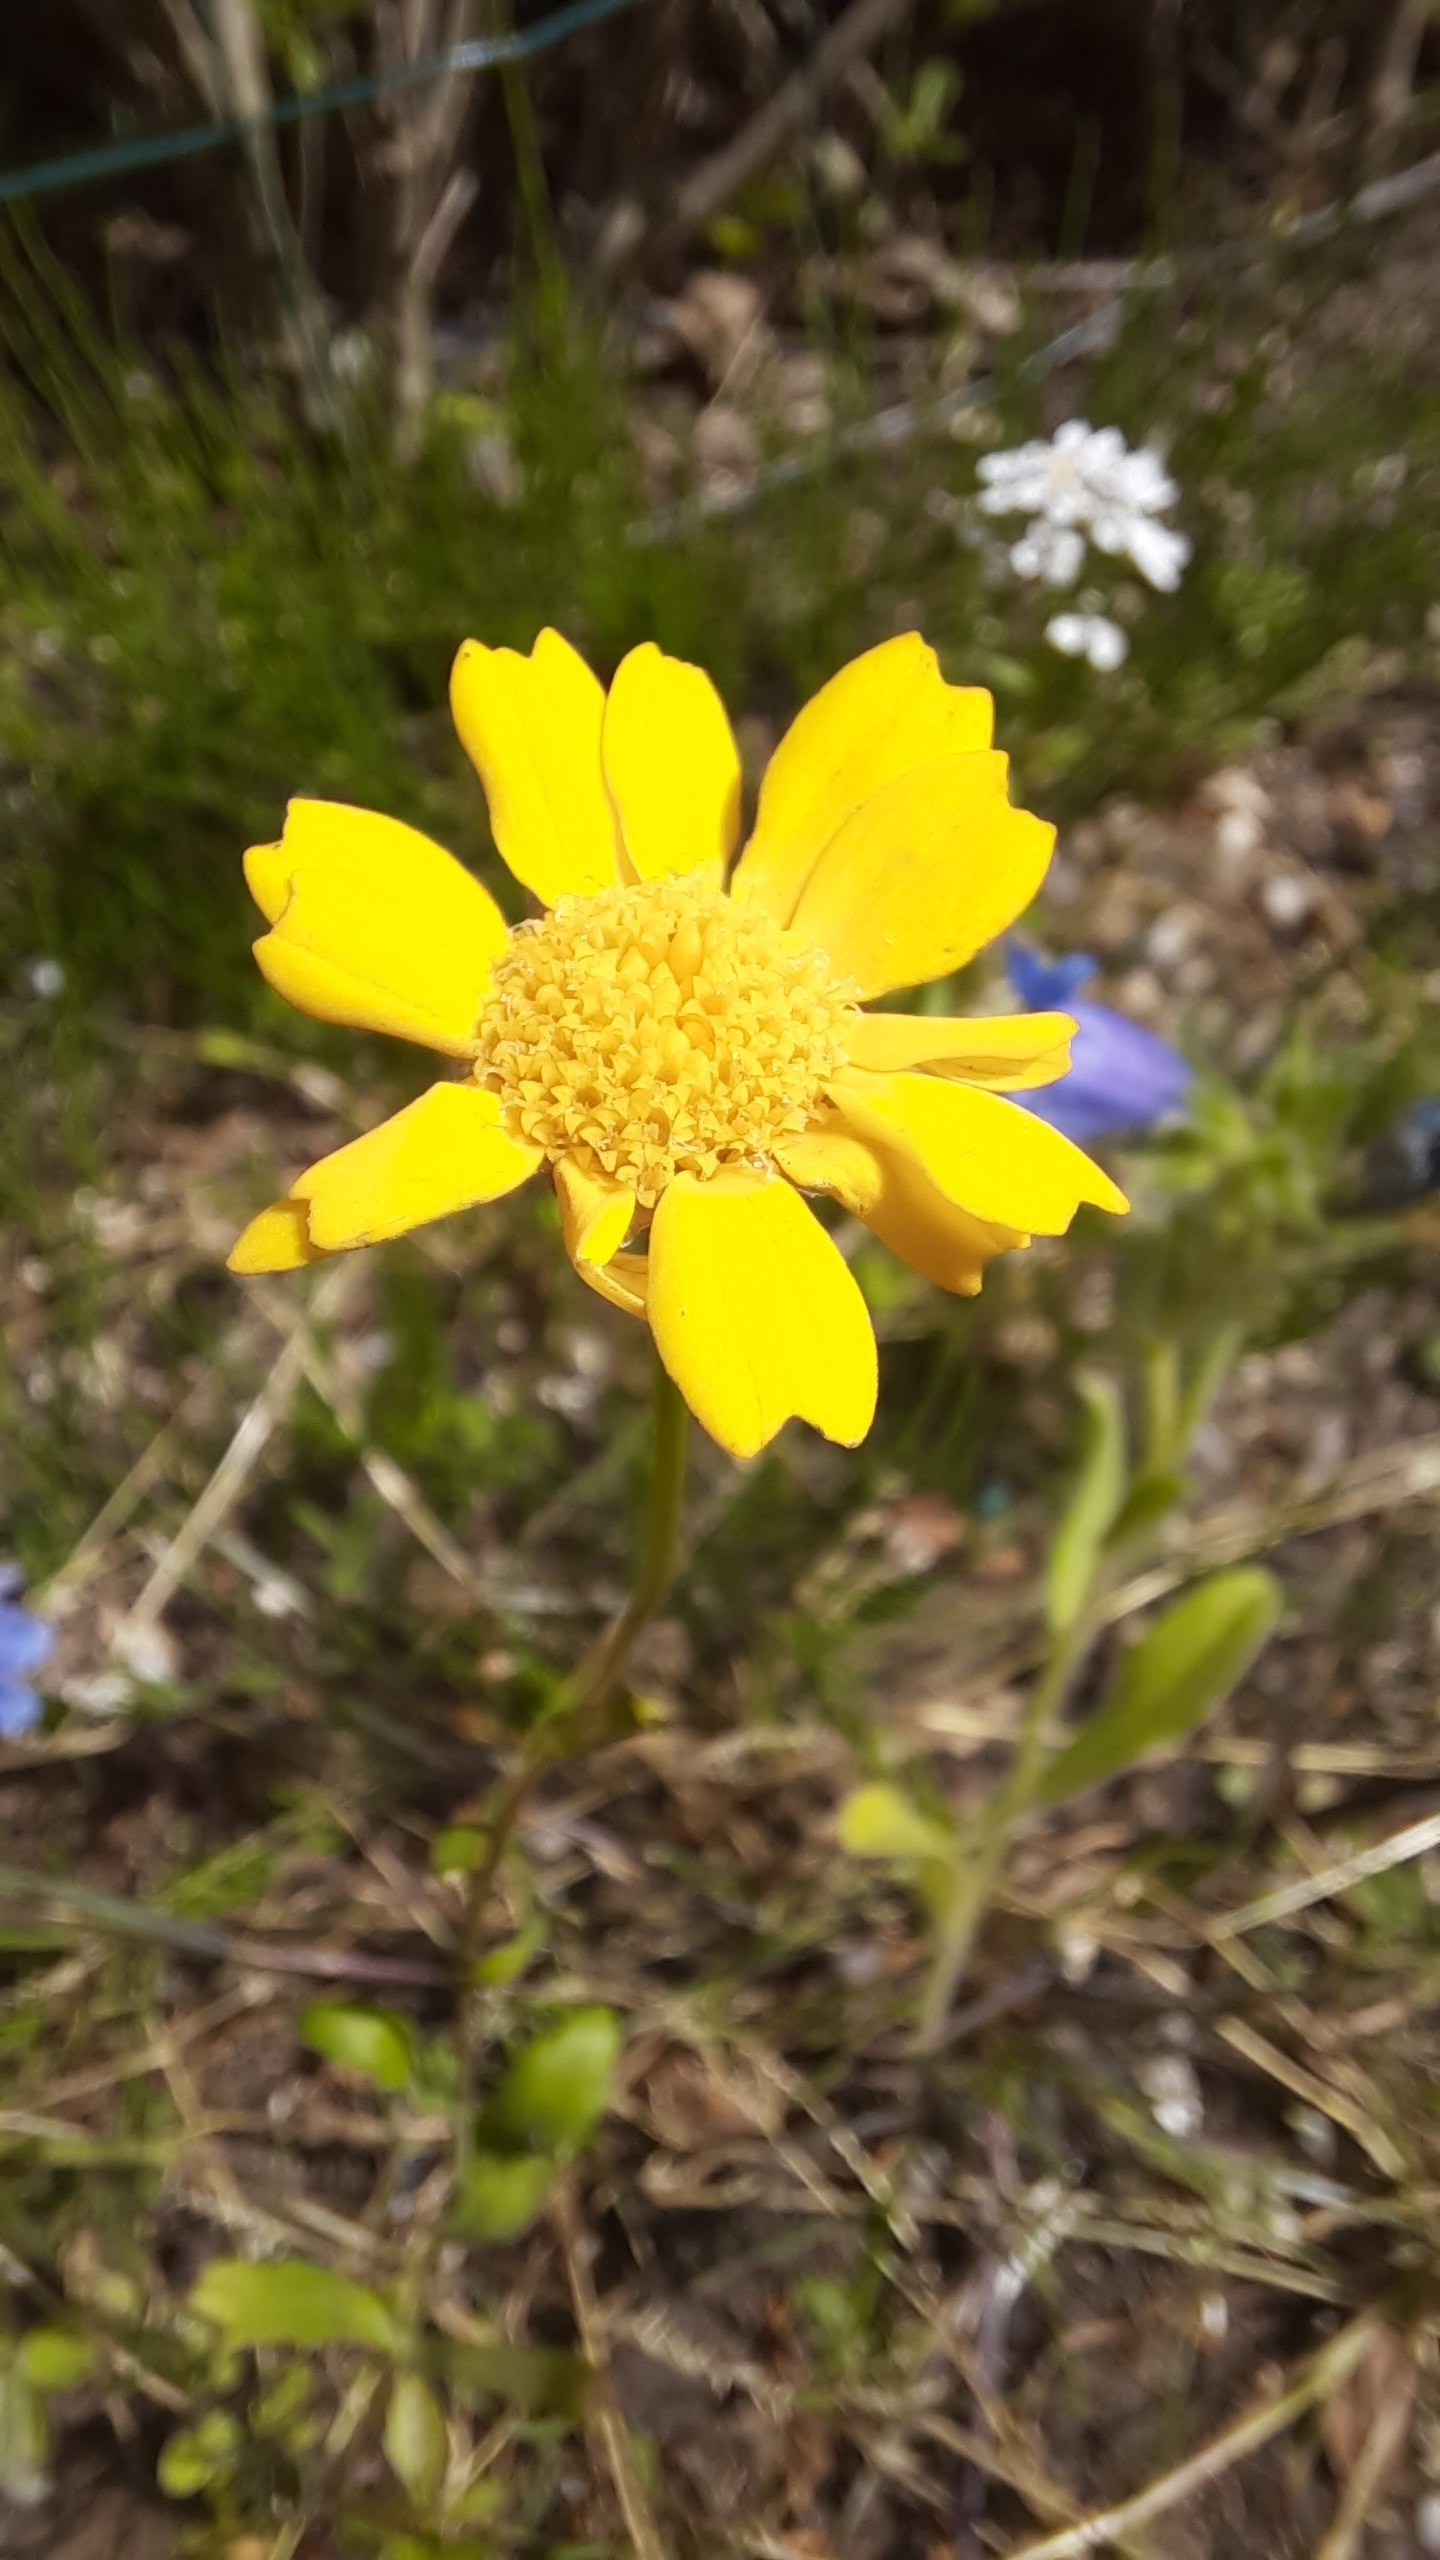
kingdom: Plantae
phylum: Tracheophyta
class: Magnoliopsida
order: Asterales
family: Asteraceae
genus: Glebionis
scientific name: Glebionis segetum
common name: Gul okseøje
